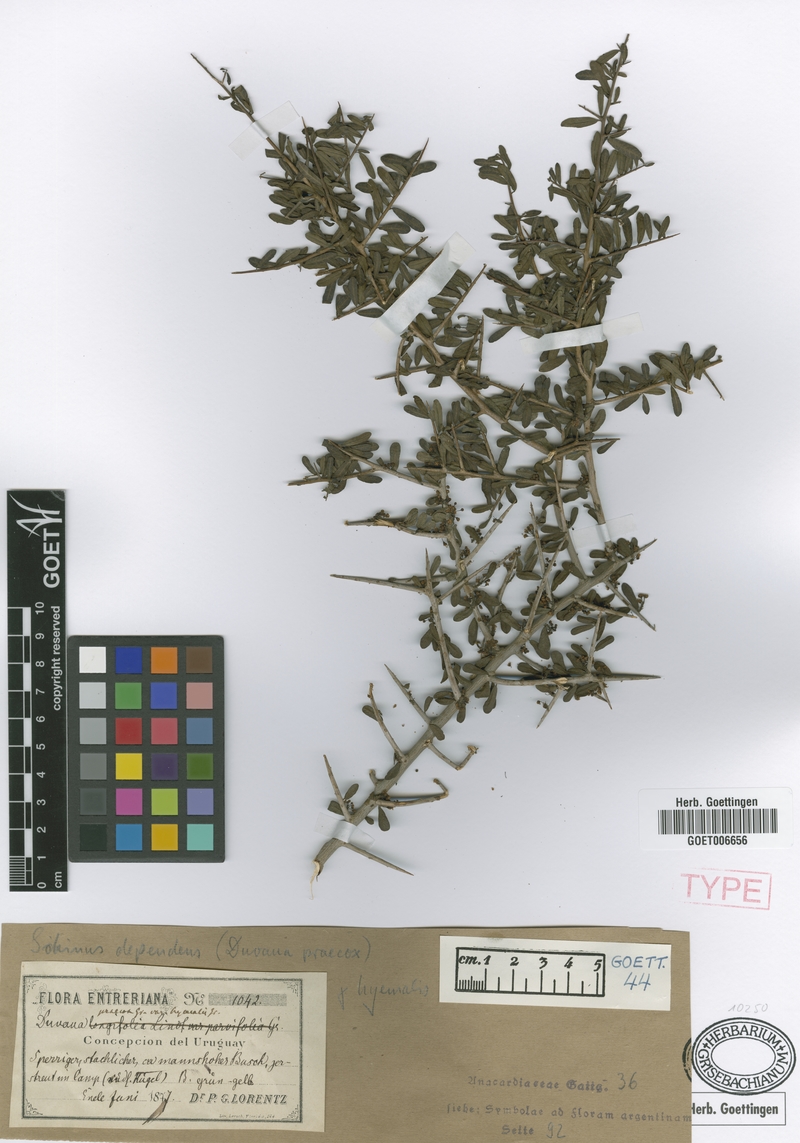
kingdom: Plantae
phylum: Tracheophyta
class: Magnoliopsida
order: Sapindales
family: Anacardiaceae
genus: Schinus
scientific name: Schinus polygama
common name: Hardee peppertree
